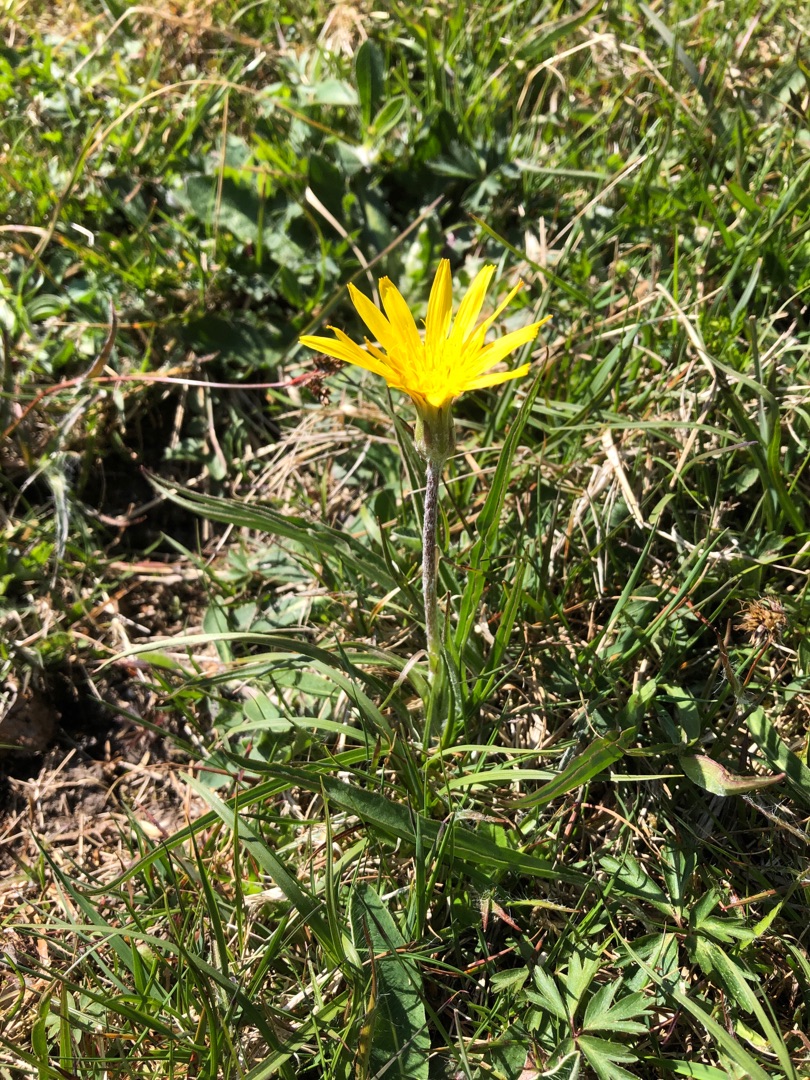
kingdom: Plantae
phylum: Tracheophyta
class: Magnoliopsida
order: Asterales
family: Asteraceae
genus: Scorzonera
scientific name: Scorzonera humilis
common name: Lav skorsoner
